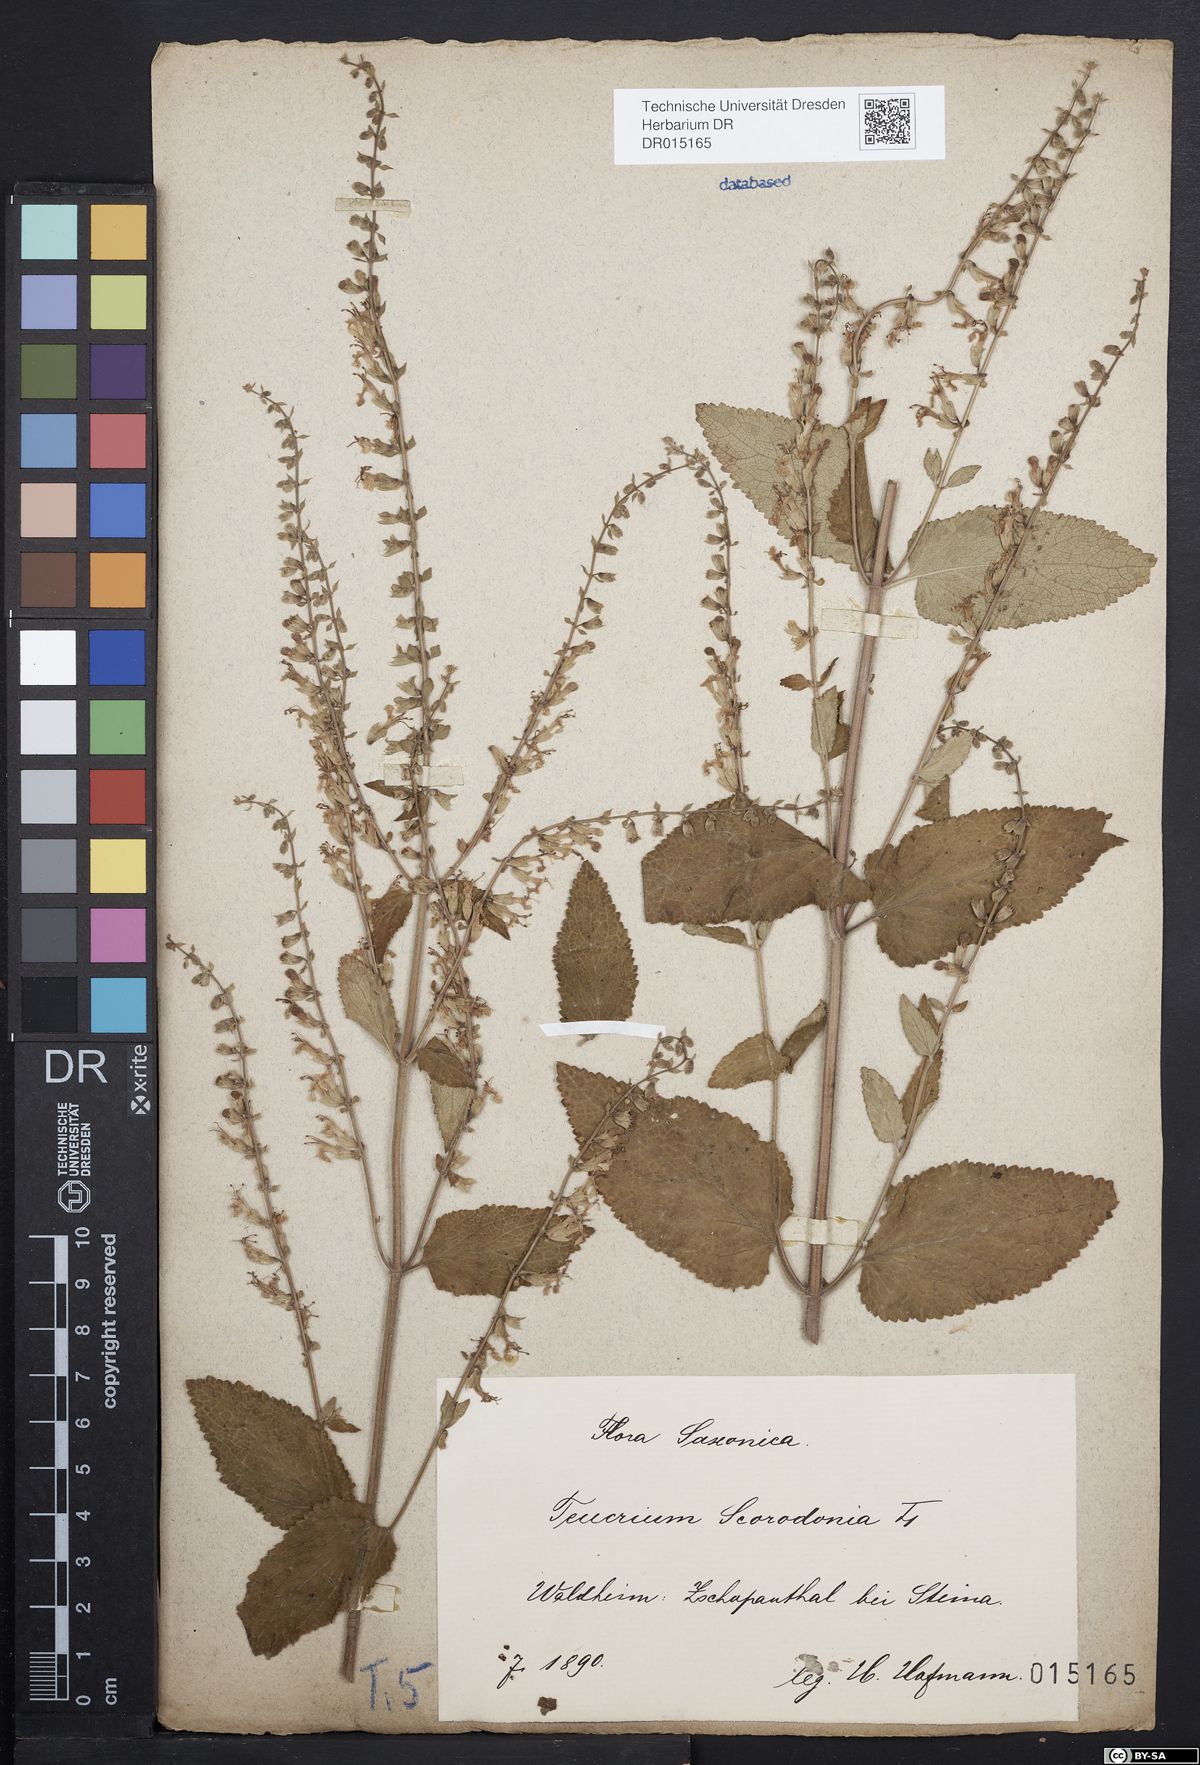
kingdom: Plantae
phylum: Tracheophyta
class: Magnoliopsida
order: Lamiales
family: Lamiaceae
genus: Teucrium
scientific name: Teucrium scorodonia
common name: Woodland germander
